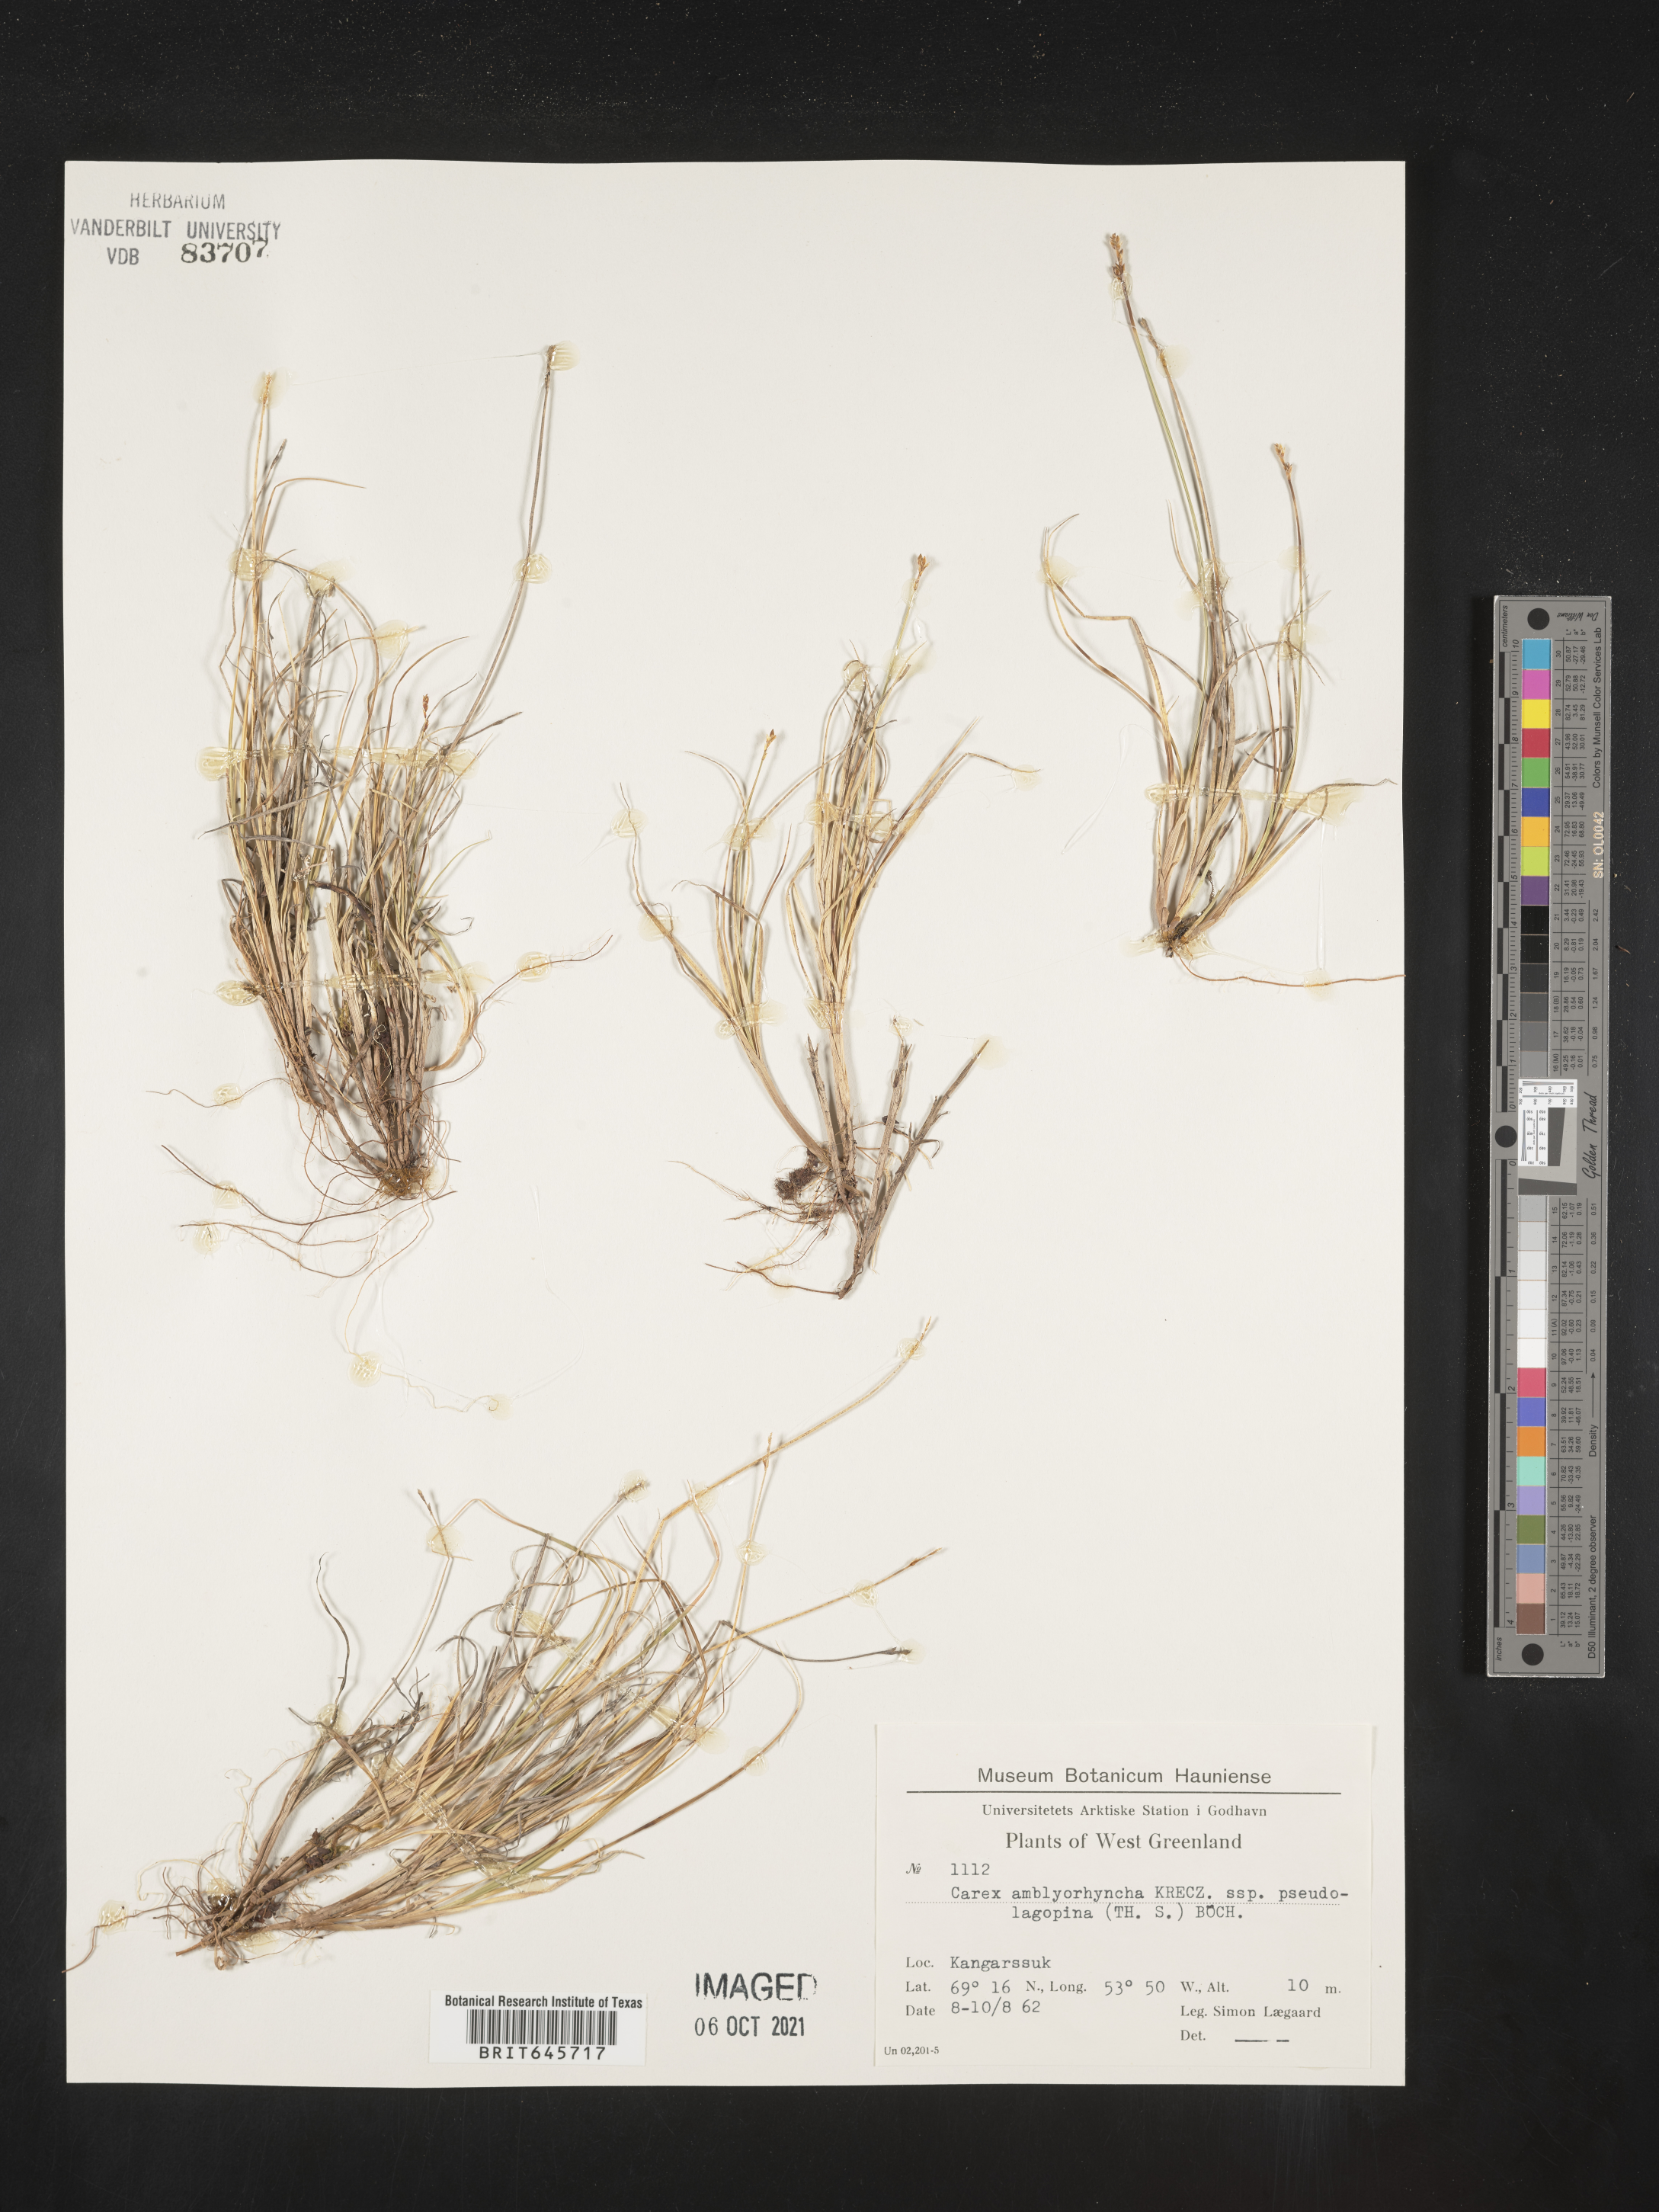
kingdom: Plantae
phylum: Tracheophyta
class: Liliopsida
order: Poales
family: Cyperaceae
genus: Carex
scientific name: Carex marina
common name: Seashore sedge
